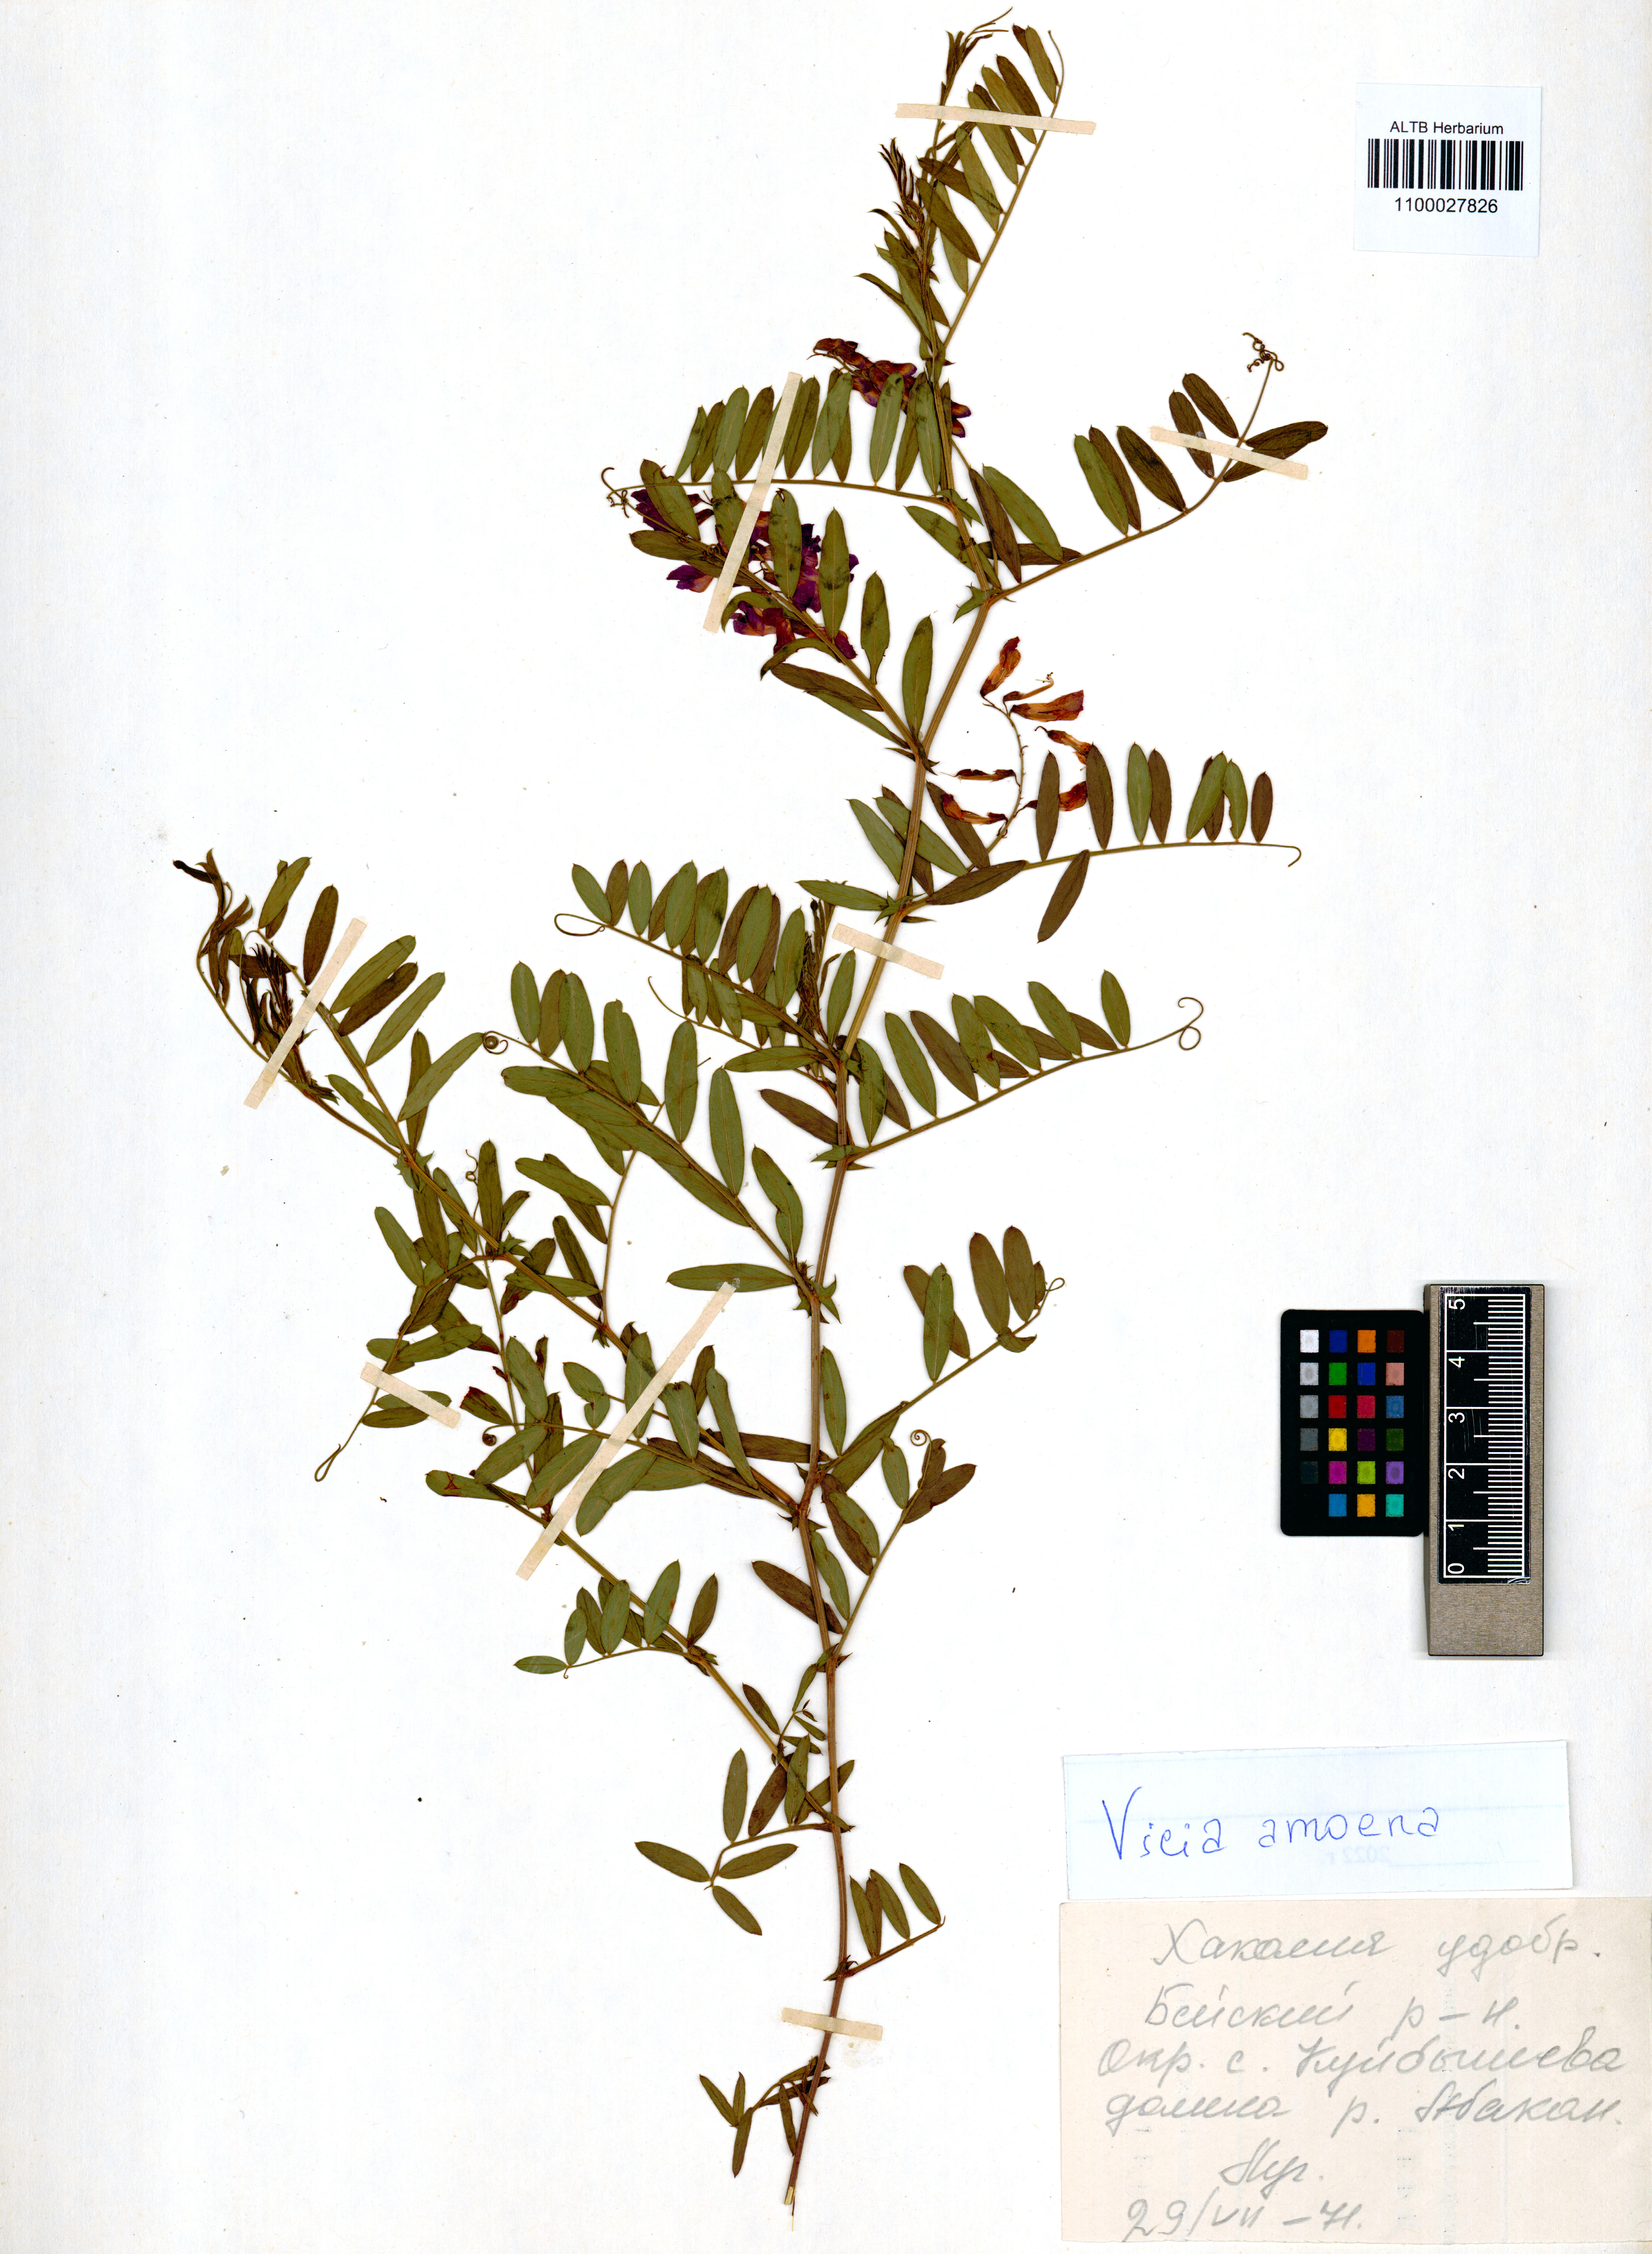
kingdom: Plantae
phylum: Tracheophyta
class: Magnoliopsida
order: Fabales
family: Fabaceae
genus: Vicia
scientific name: Vicia amoena
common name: Cheder ebs
